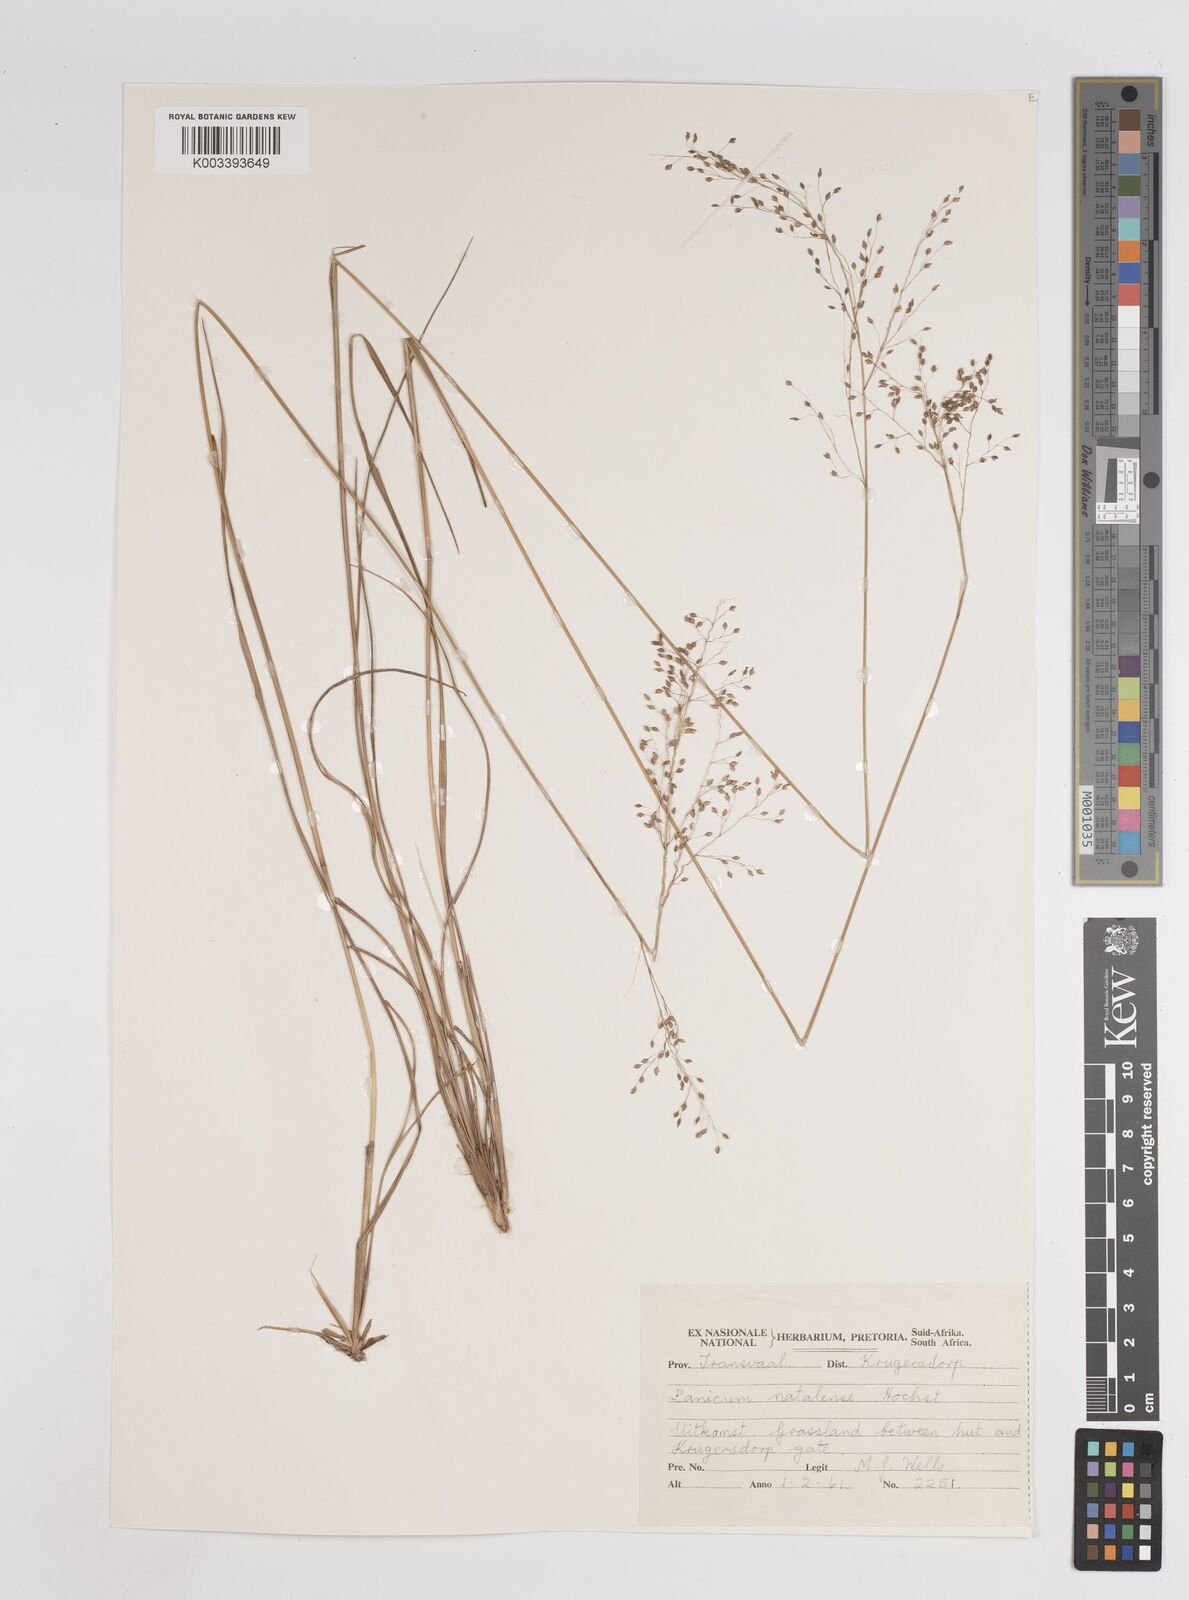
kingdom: Plantae
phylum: Tracheophyta
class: Liliopsida
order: Poales
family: Poaceae
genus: Trichanthecium
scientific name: Trichanthecium natalense
